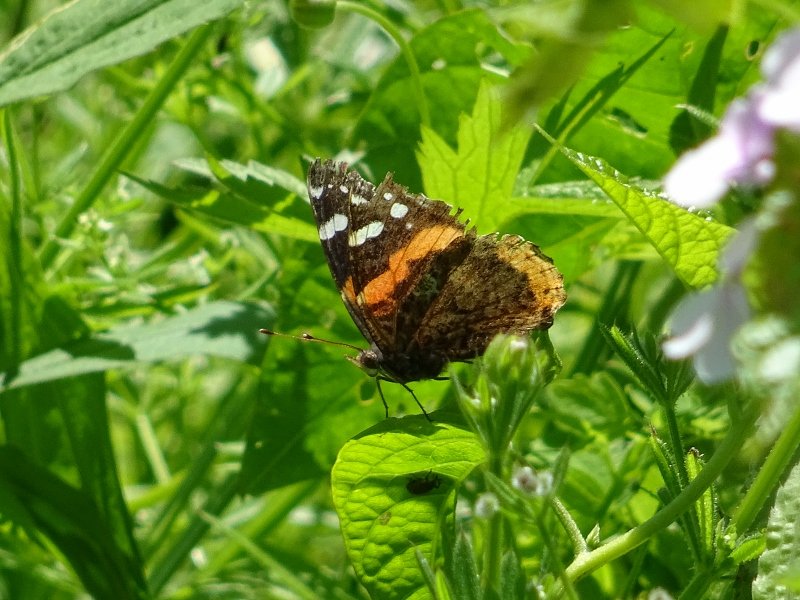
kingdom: Animalia
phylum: Arthropoda
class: Insecta
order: Lepidoptera
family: Nymphalidae
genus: Vanessa
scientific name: Vanessa atalanta
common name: Red Admiral
